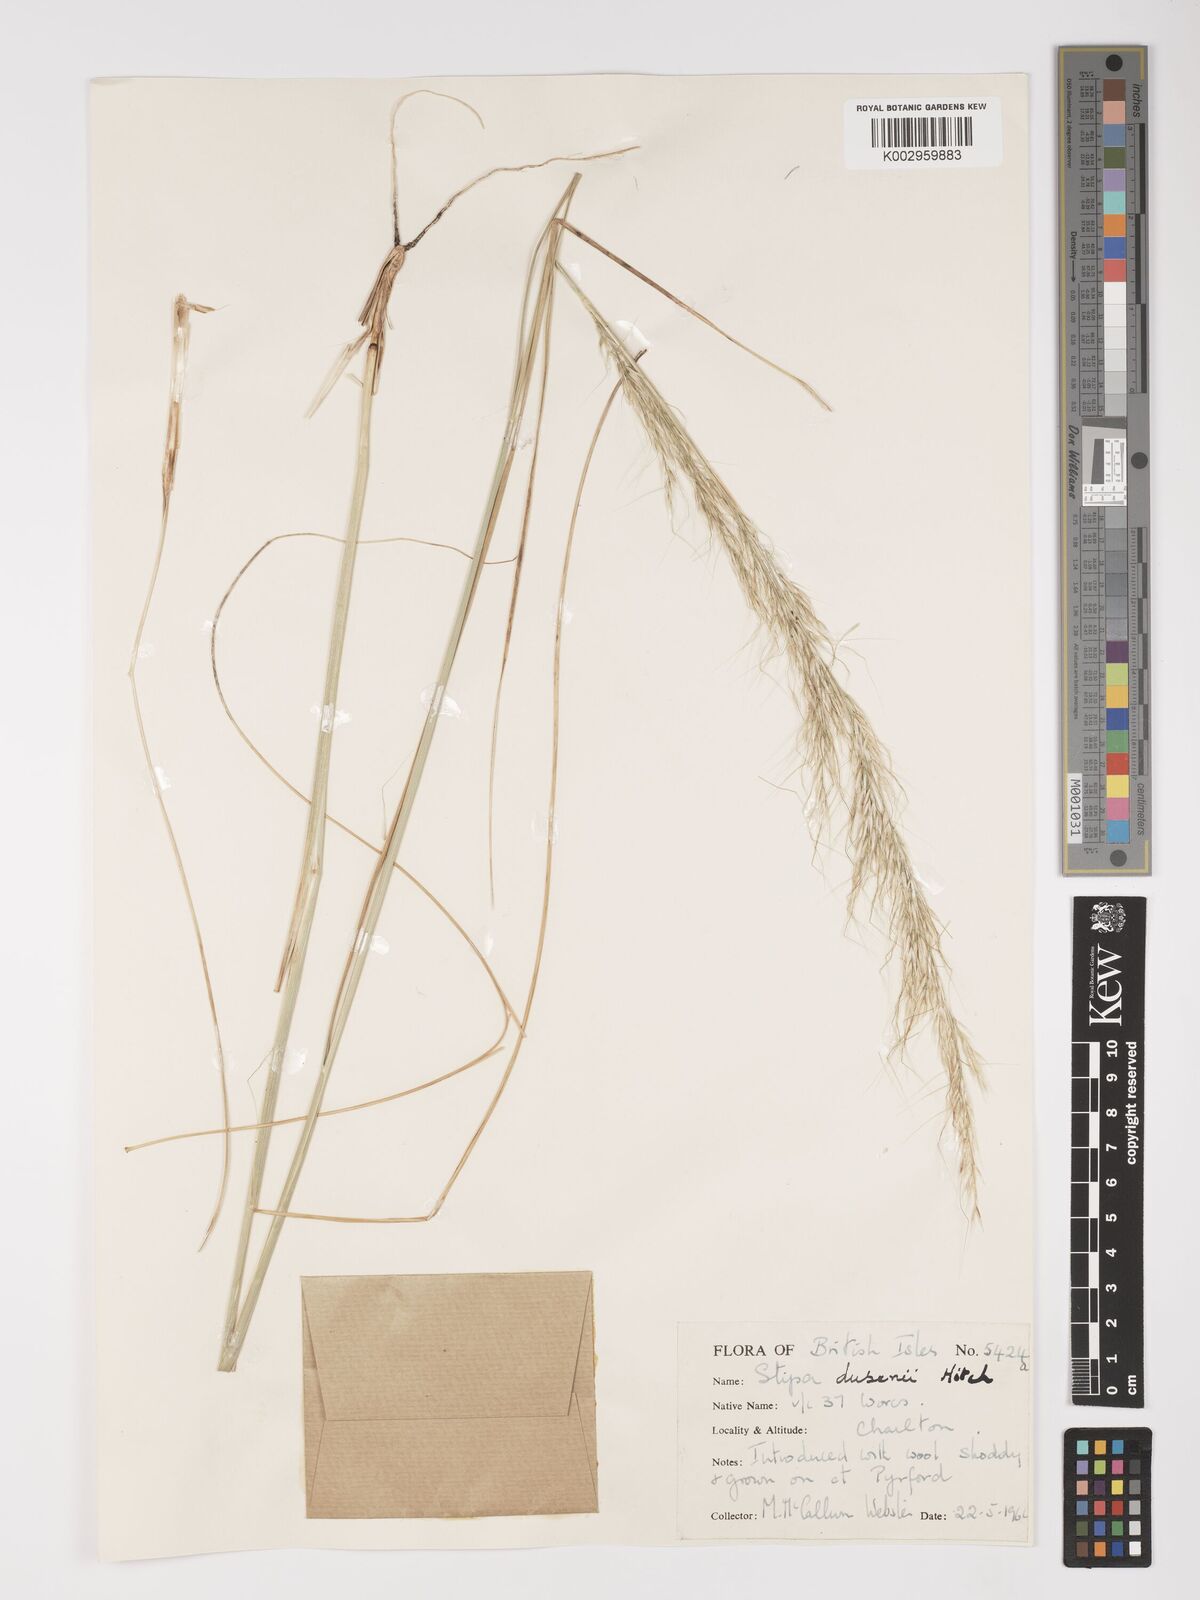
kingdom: Plantae
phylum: Tracheophyta
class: Liliopsida
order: Poales
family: Poaceae
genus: Amelichloa
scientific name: Amelichloa ambigua
